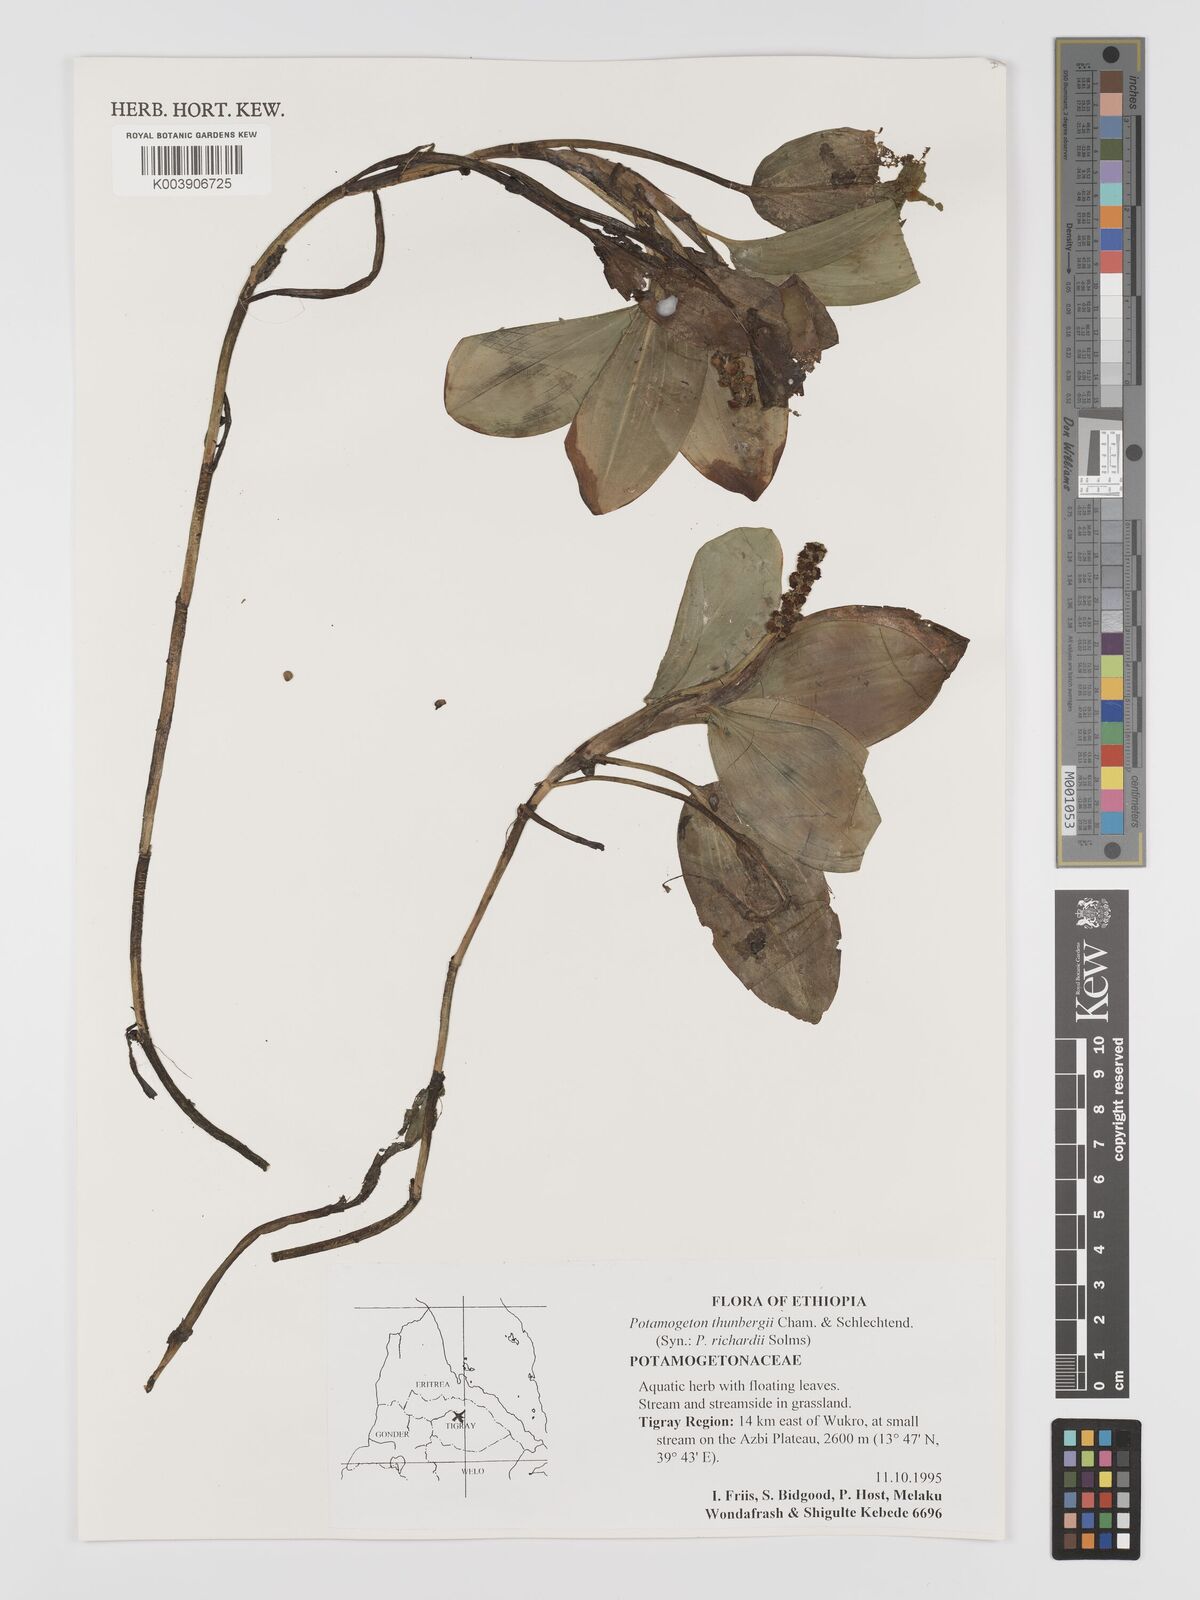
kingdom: Plantae
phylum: Tracheophyta
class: Liliopsida
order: Alismatales
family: Potamogetonaceae
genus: Potamogeton
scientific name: Potamogeton nodosus
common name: Loddon pondweed
